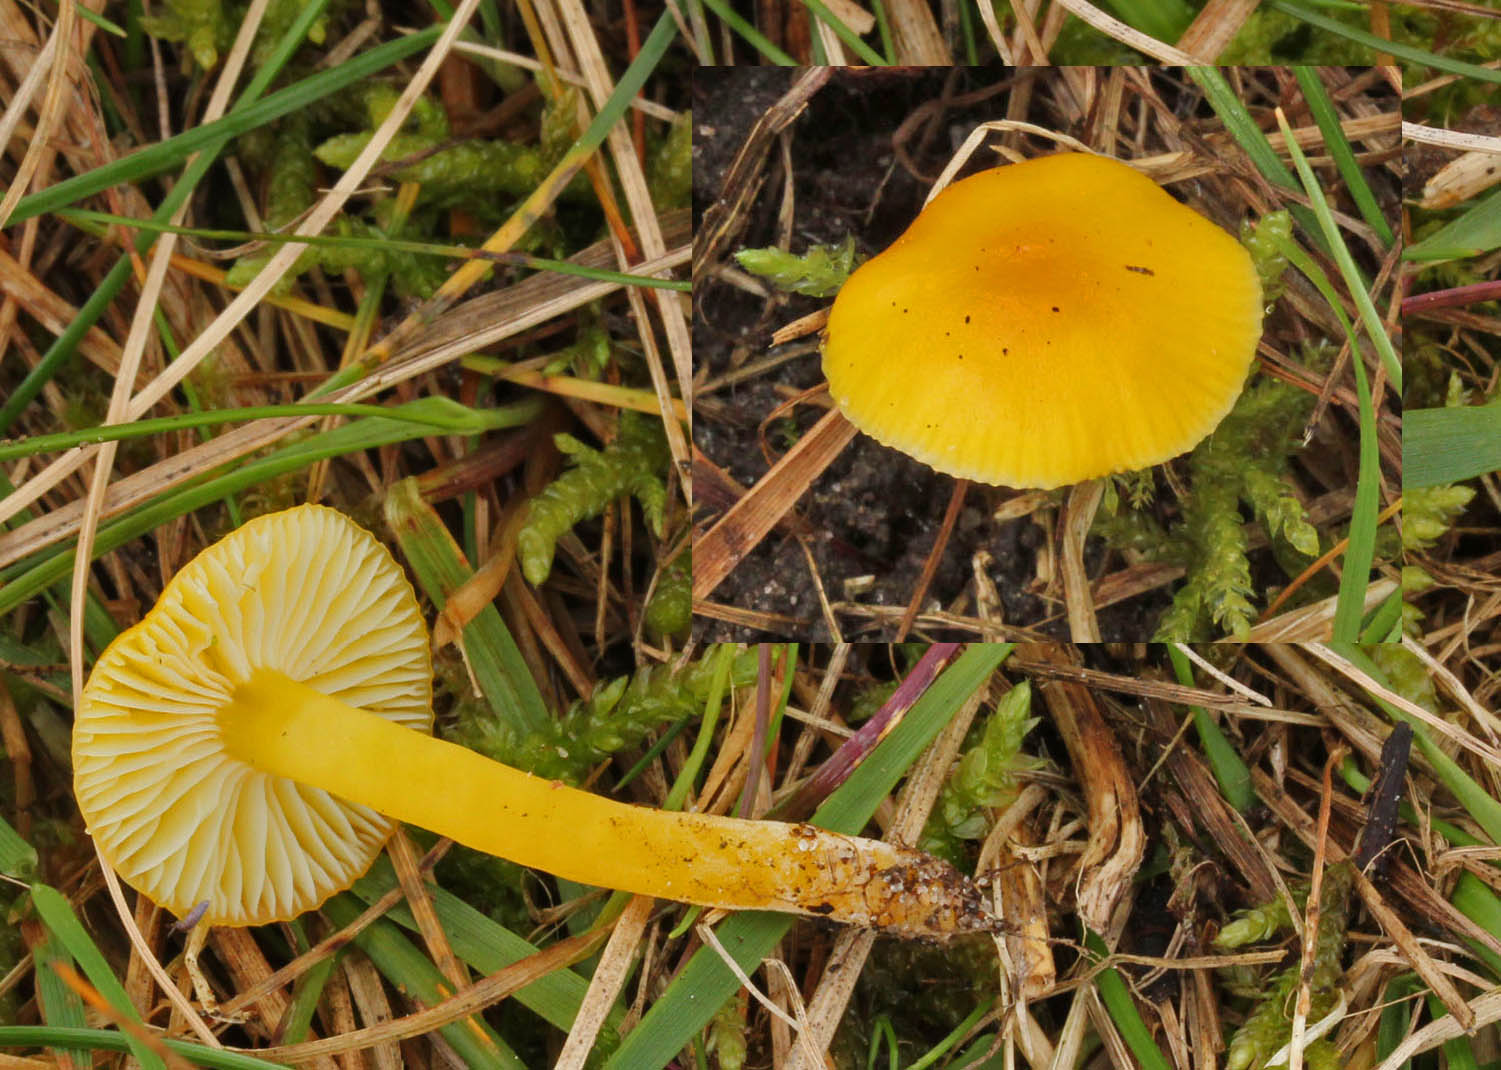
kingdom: Fungi
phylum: Basidiomycota
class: Agaricomycetes
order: Agaricales
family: Hygrophoraceae
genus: Hygrocybe
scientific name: Hygrocybe ceracea
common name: voksgul vokshat
